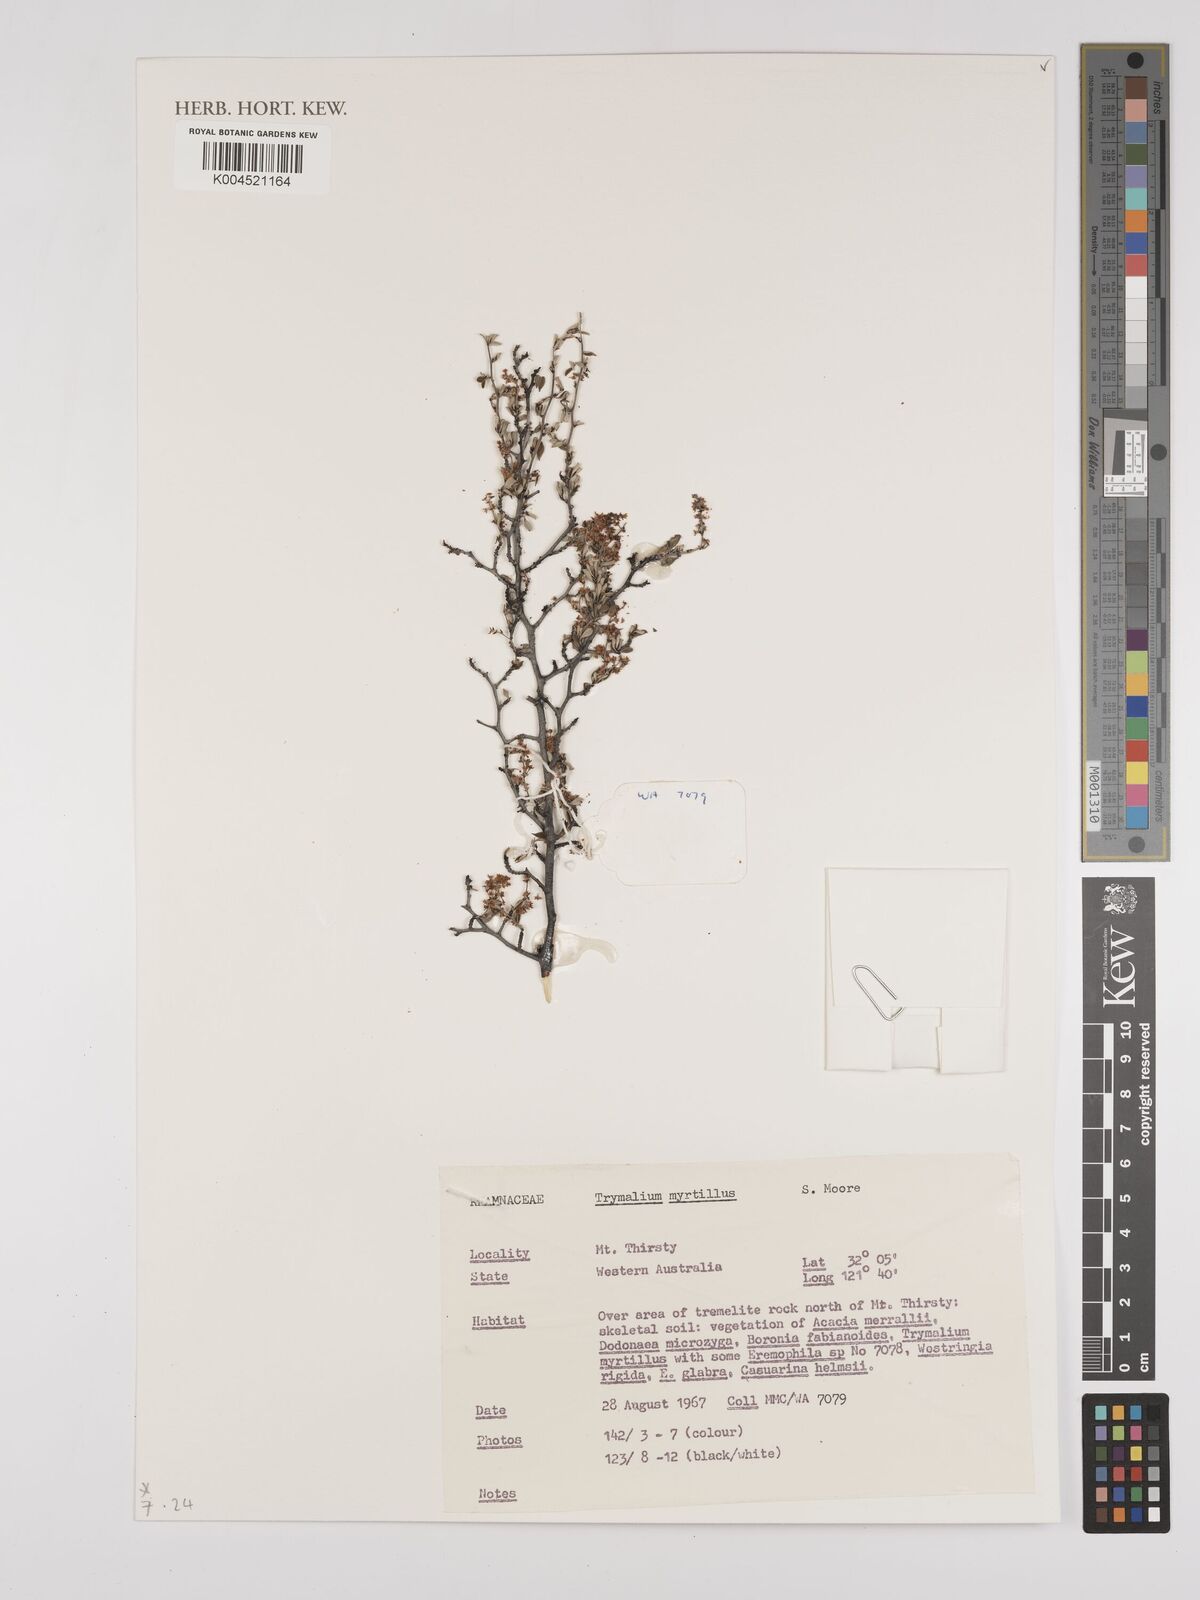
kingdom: Plantae
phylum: Tracheophyta
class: Magnoliopsida
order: Rosales
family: Rhamnaceae
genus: Trymalium
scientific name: Trymalium myrtillus
